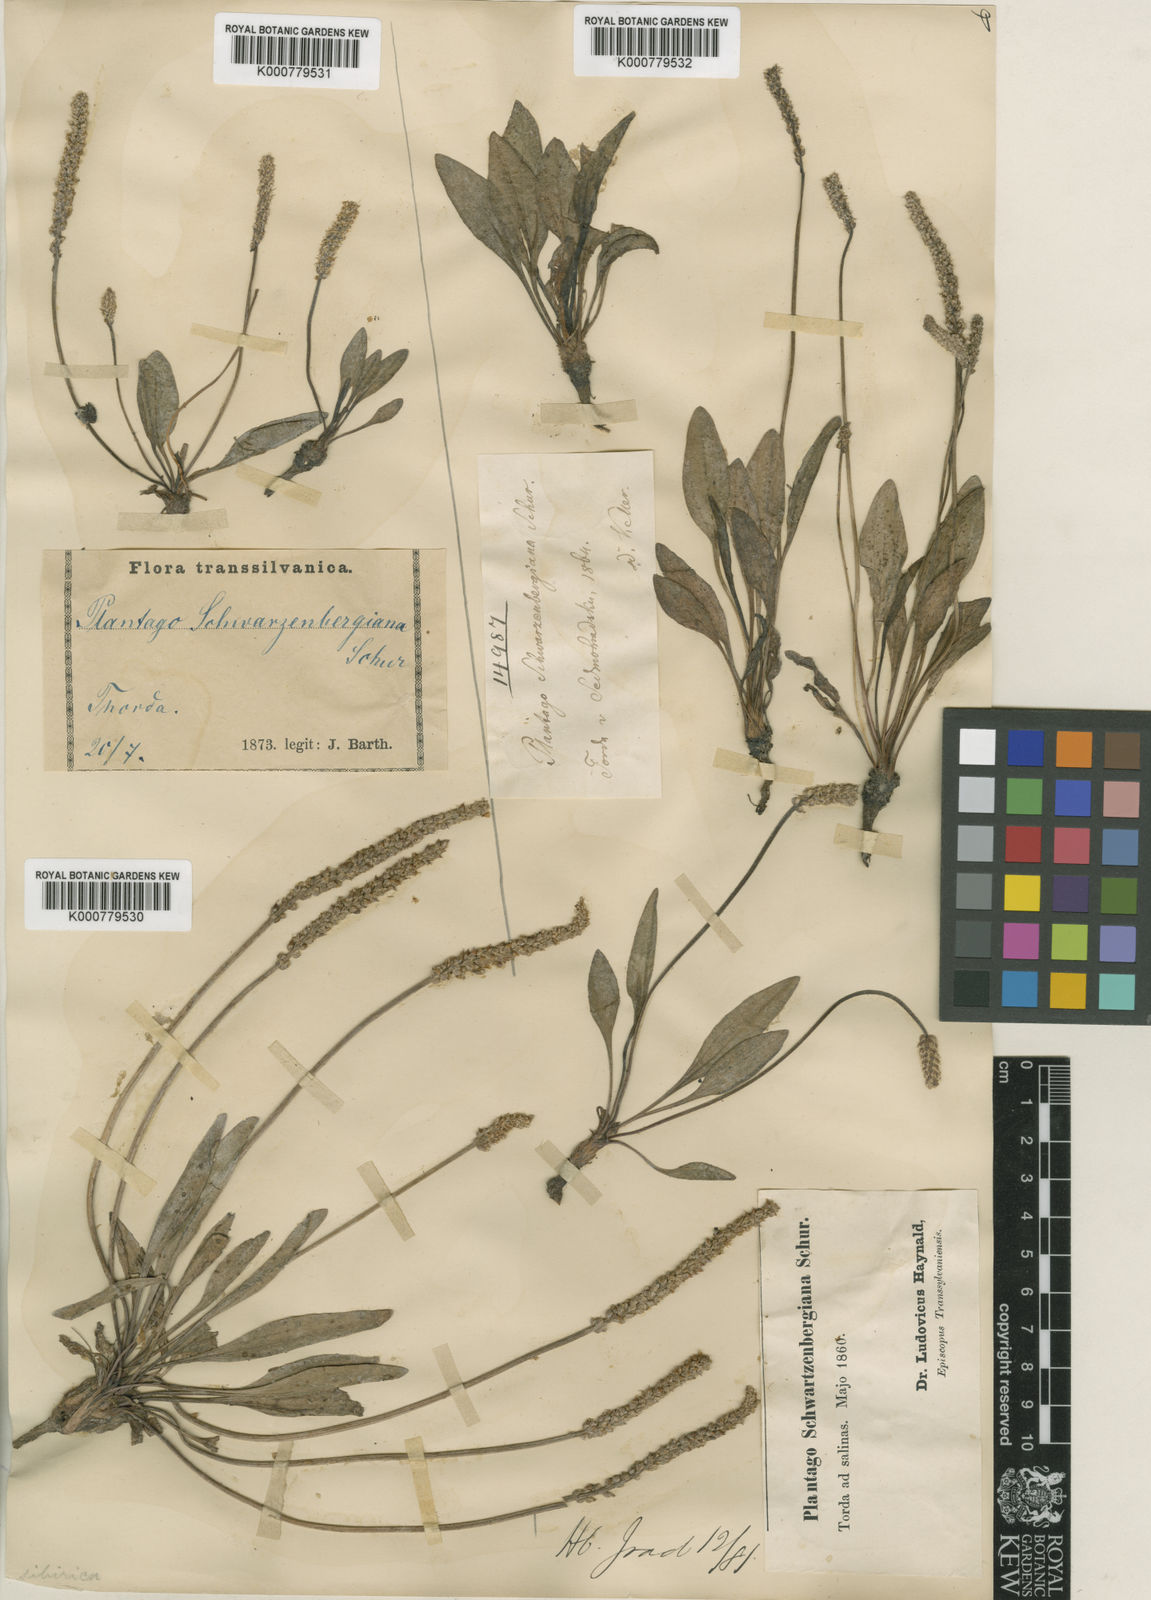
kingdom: Plantae
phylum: Tracheophyta
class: Magnoliopsida
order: Lamiales
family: Plantaginaceae
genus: Plantago
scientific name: Plantago schwarzenbergiana
